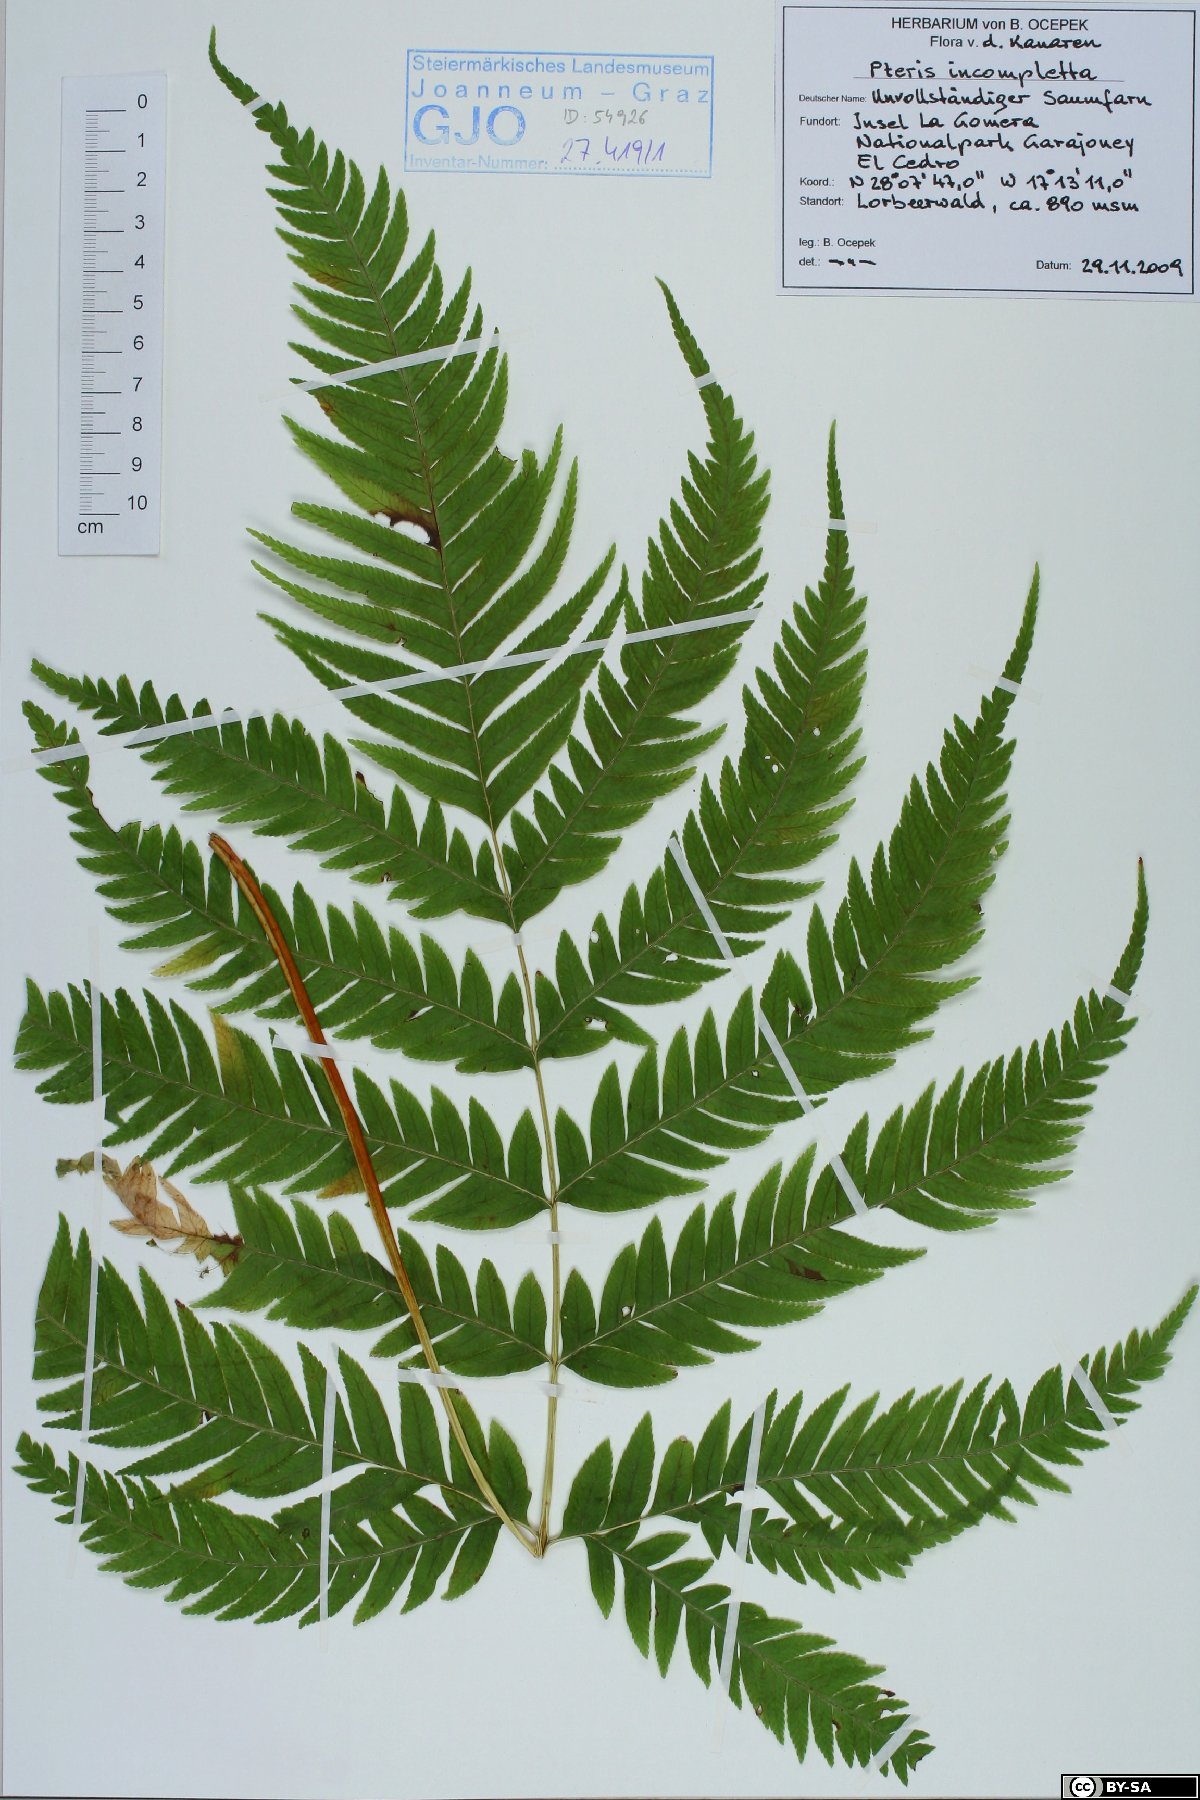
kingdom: Plantae
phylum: Tracheophyta
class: Polypodiopsida
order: Polypodiales
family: Pteridaceae
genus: Pteris
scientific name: Pteris incompleta
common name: Laurisilva brake
